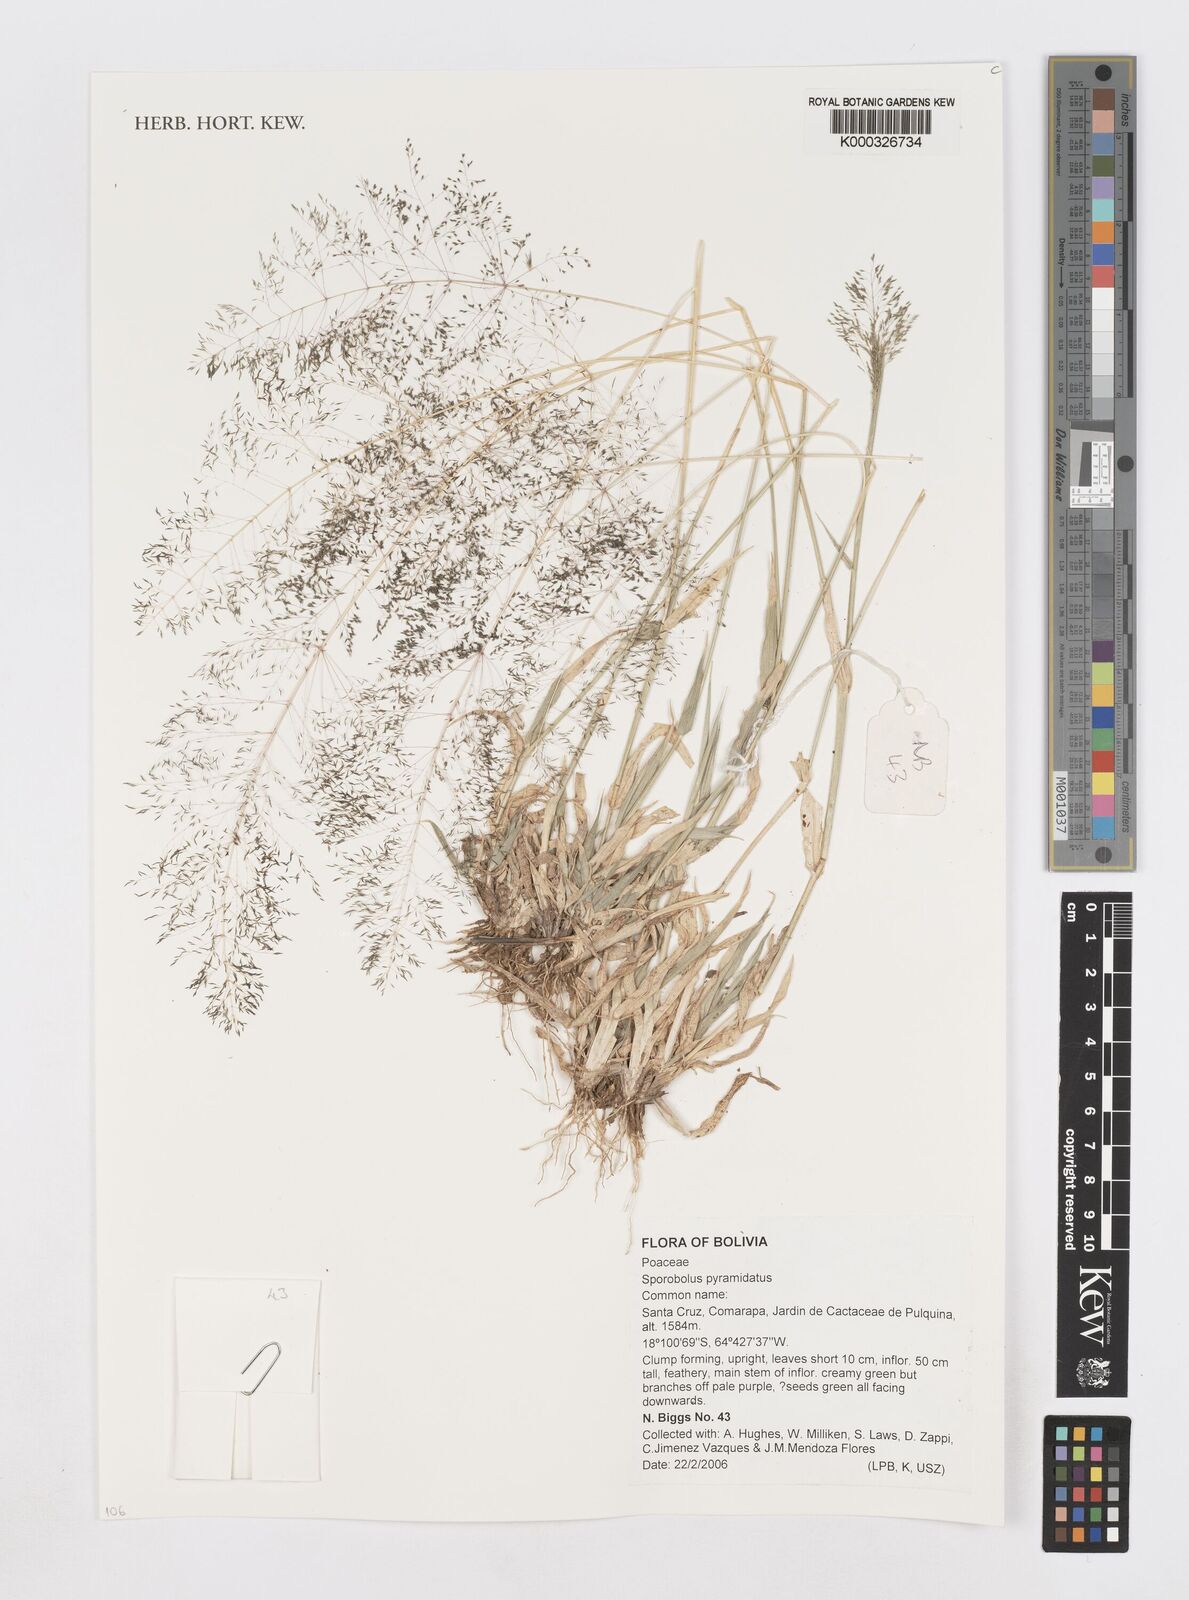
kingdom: Plantae
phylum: Tracheophyta
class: Liliopsida
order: Poales
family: Poaceae
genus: Sporobolus
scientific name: Sporobolus pyramidatus
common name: Whorled dropseed
